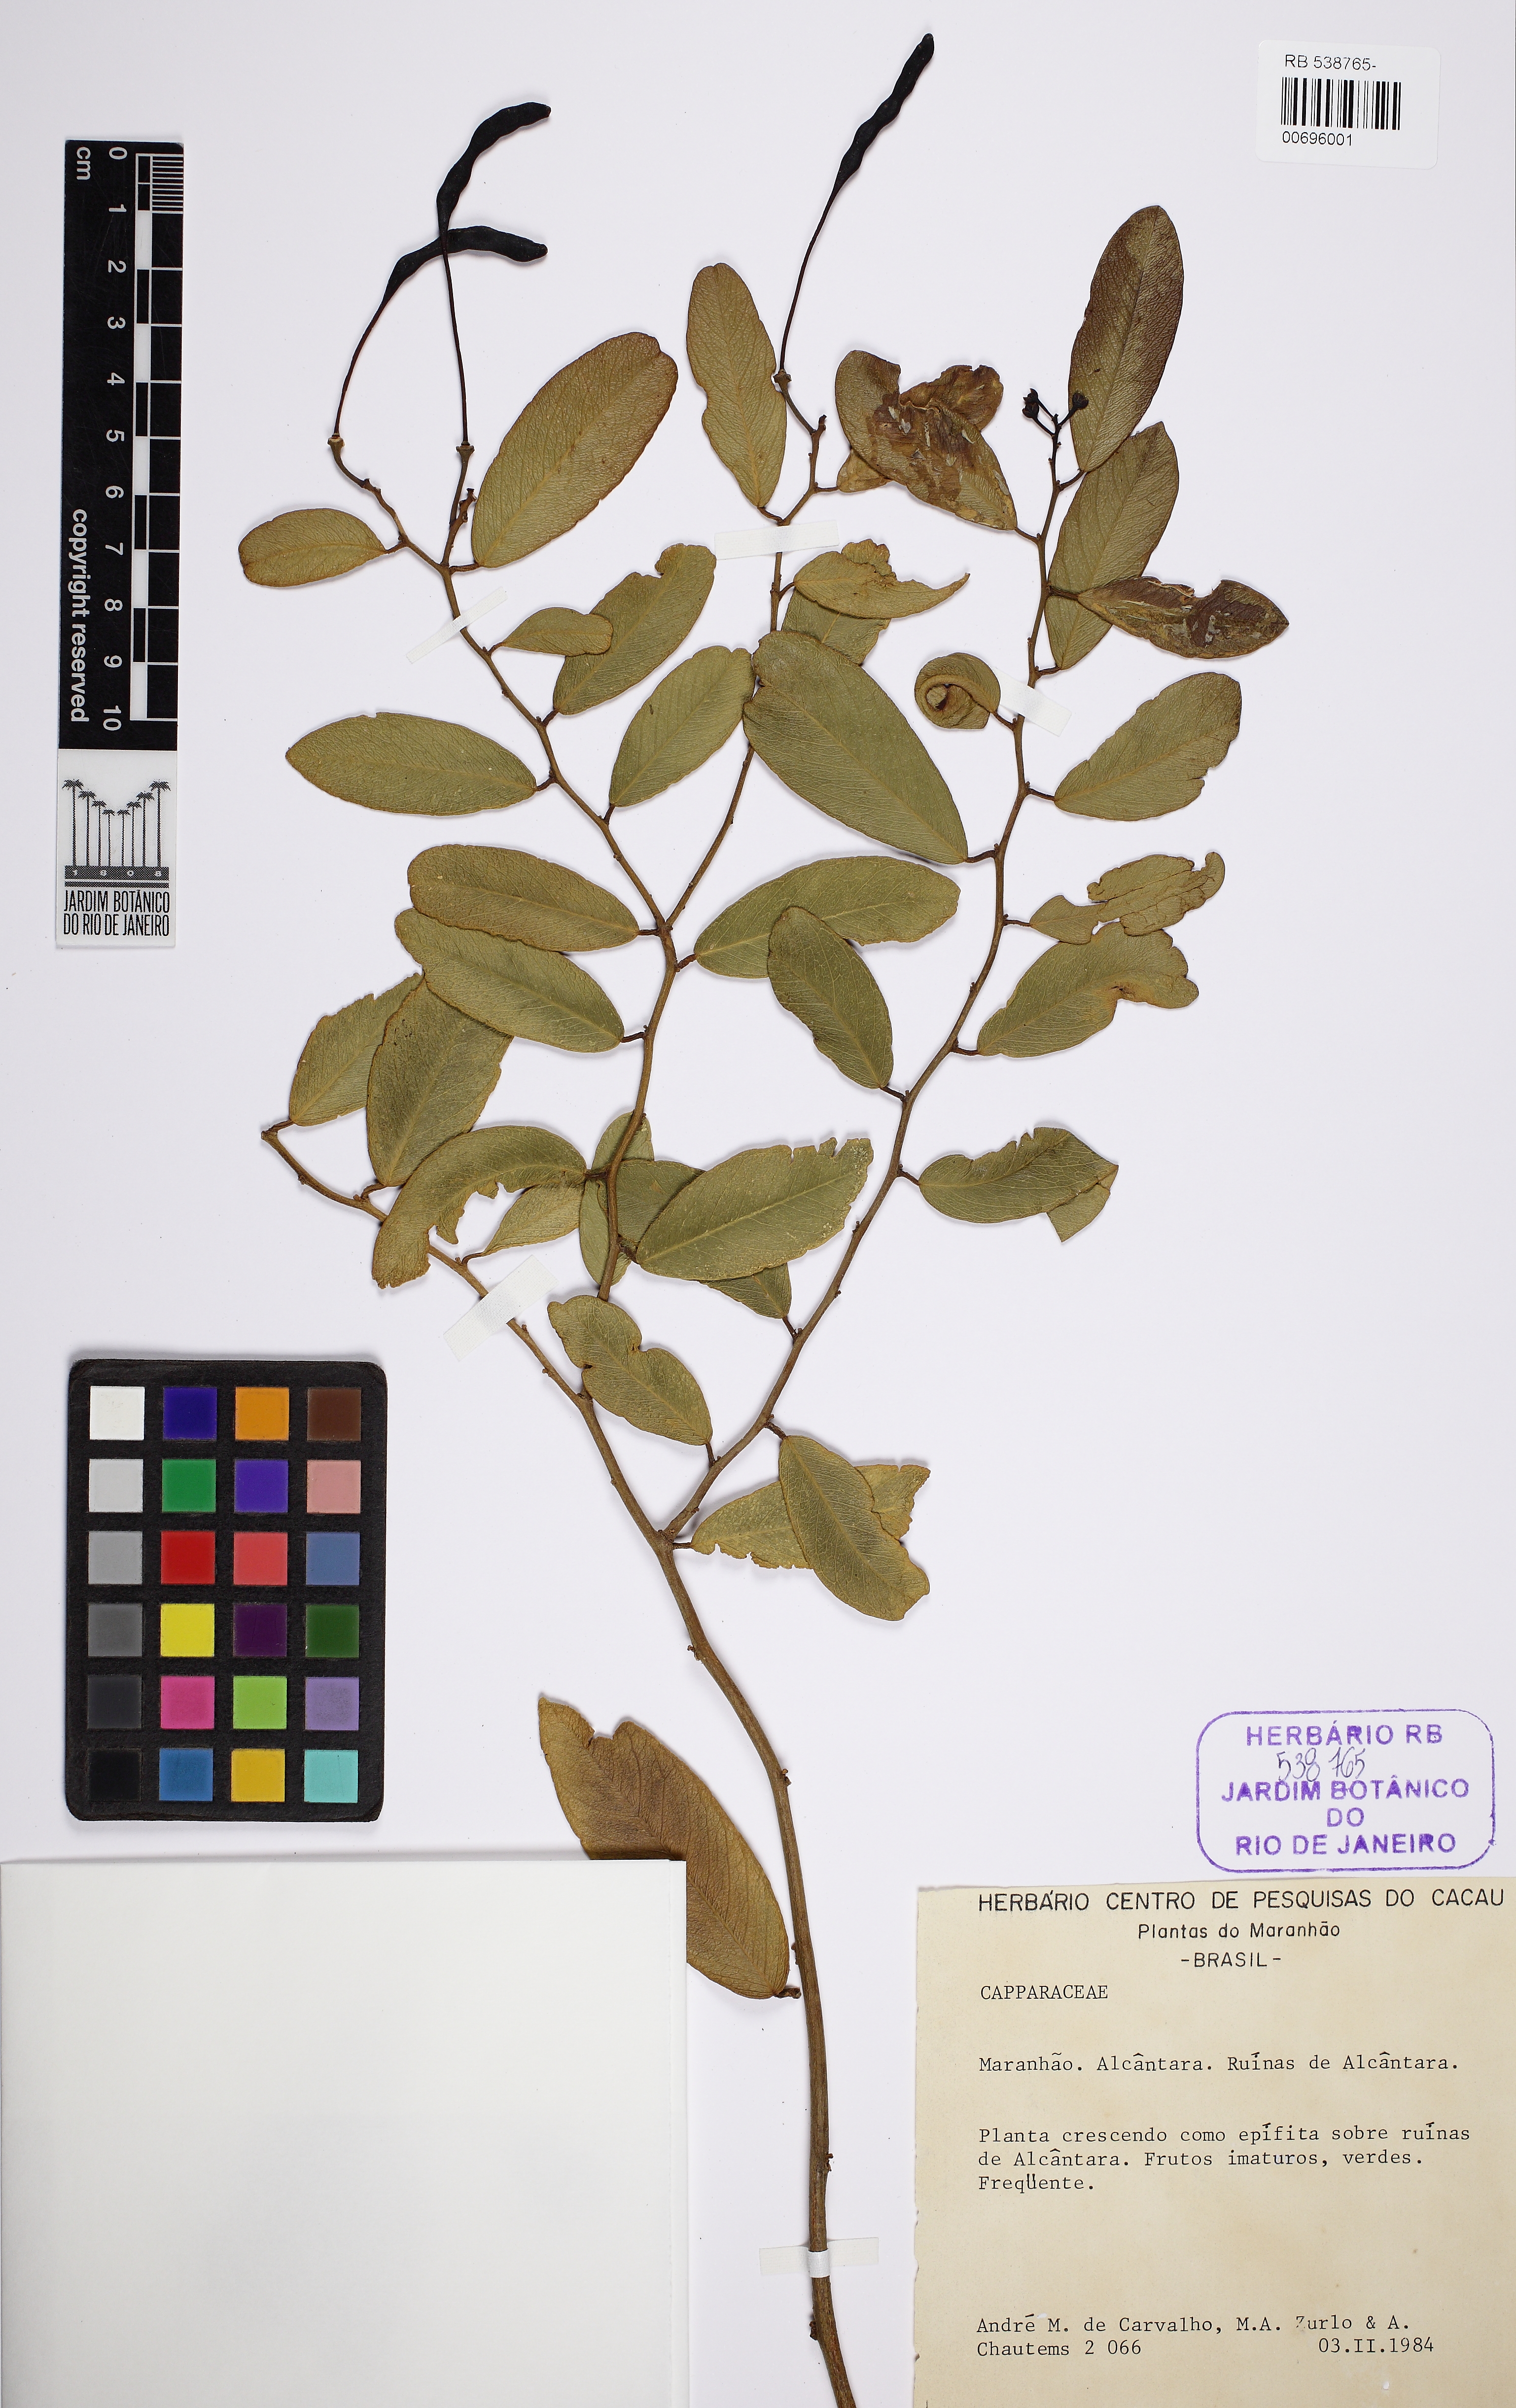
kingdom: Plantae
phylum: Tracheophyta
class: Magnoliopsida
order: Brassicales
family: Capparaceae
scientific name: Capparaceae
